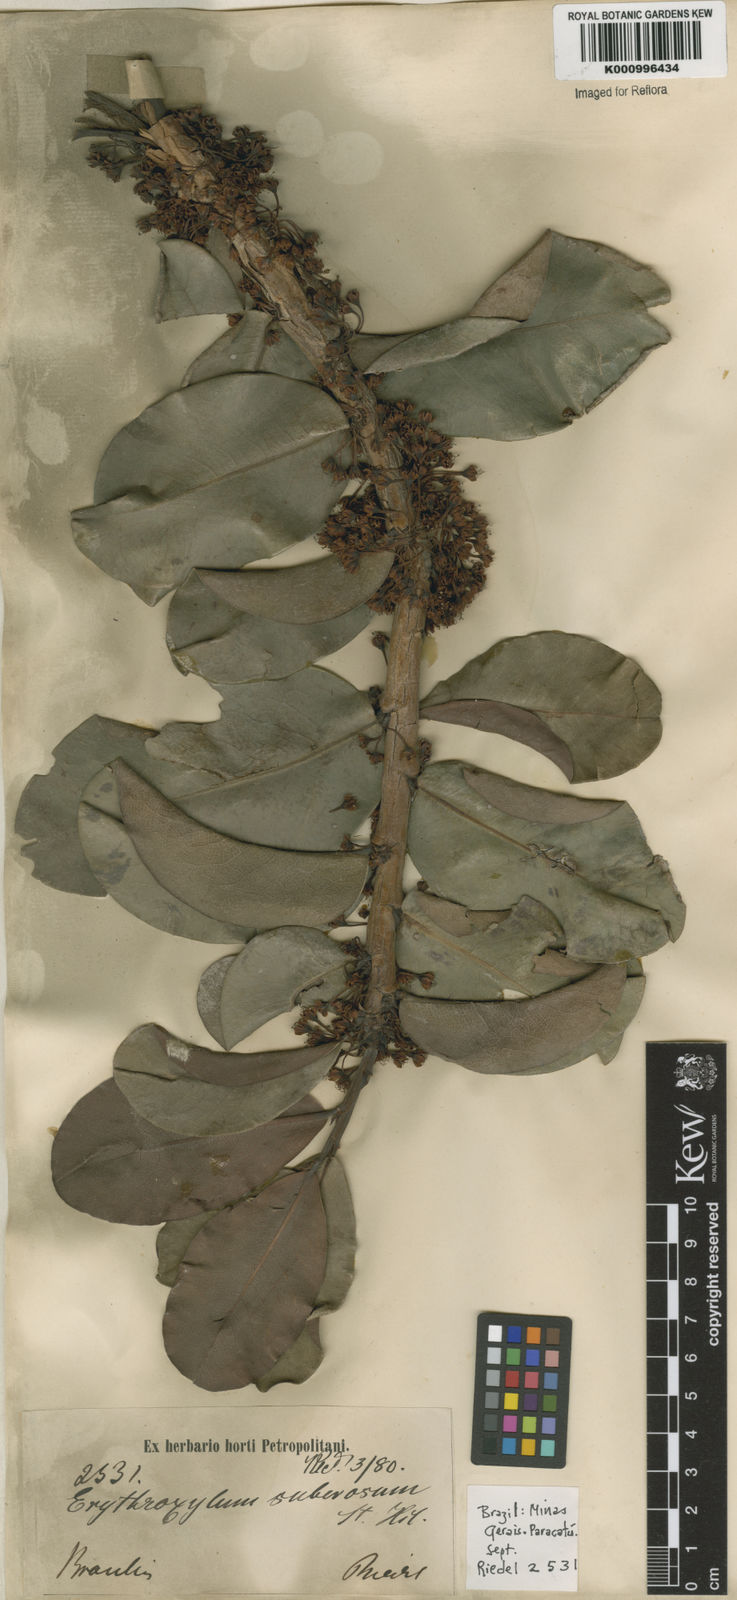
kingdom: Plantae
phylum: Tracheophyta
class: Magnoliopsida
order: Malpighiales
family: Erythroxylaceae
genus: Erythroxylum
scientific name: Erythroxylum suberosum
